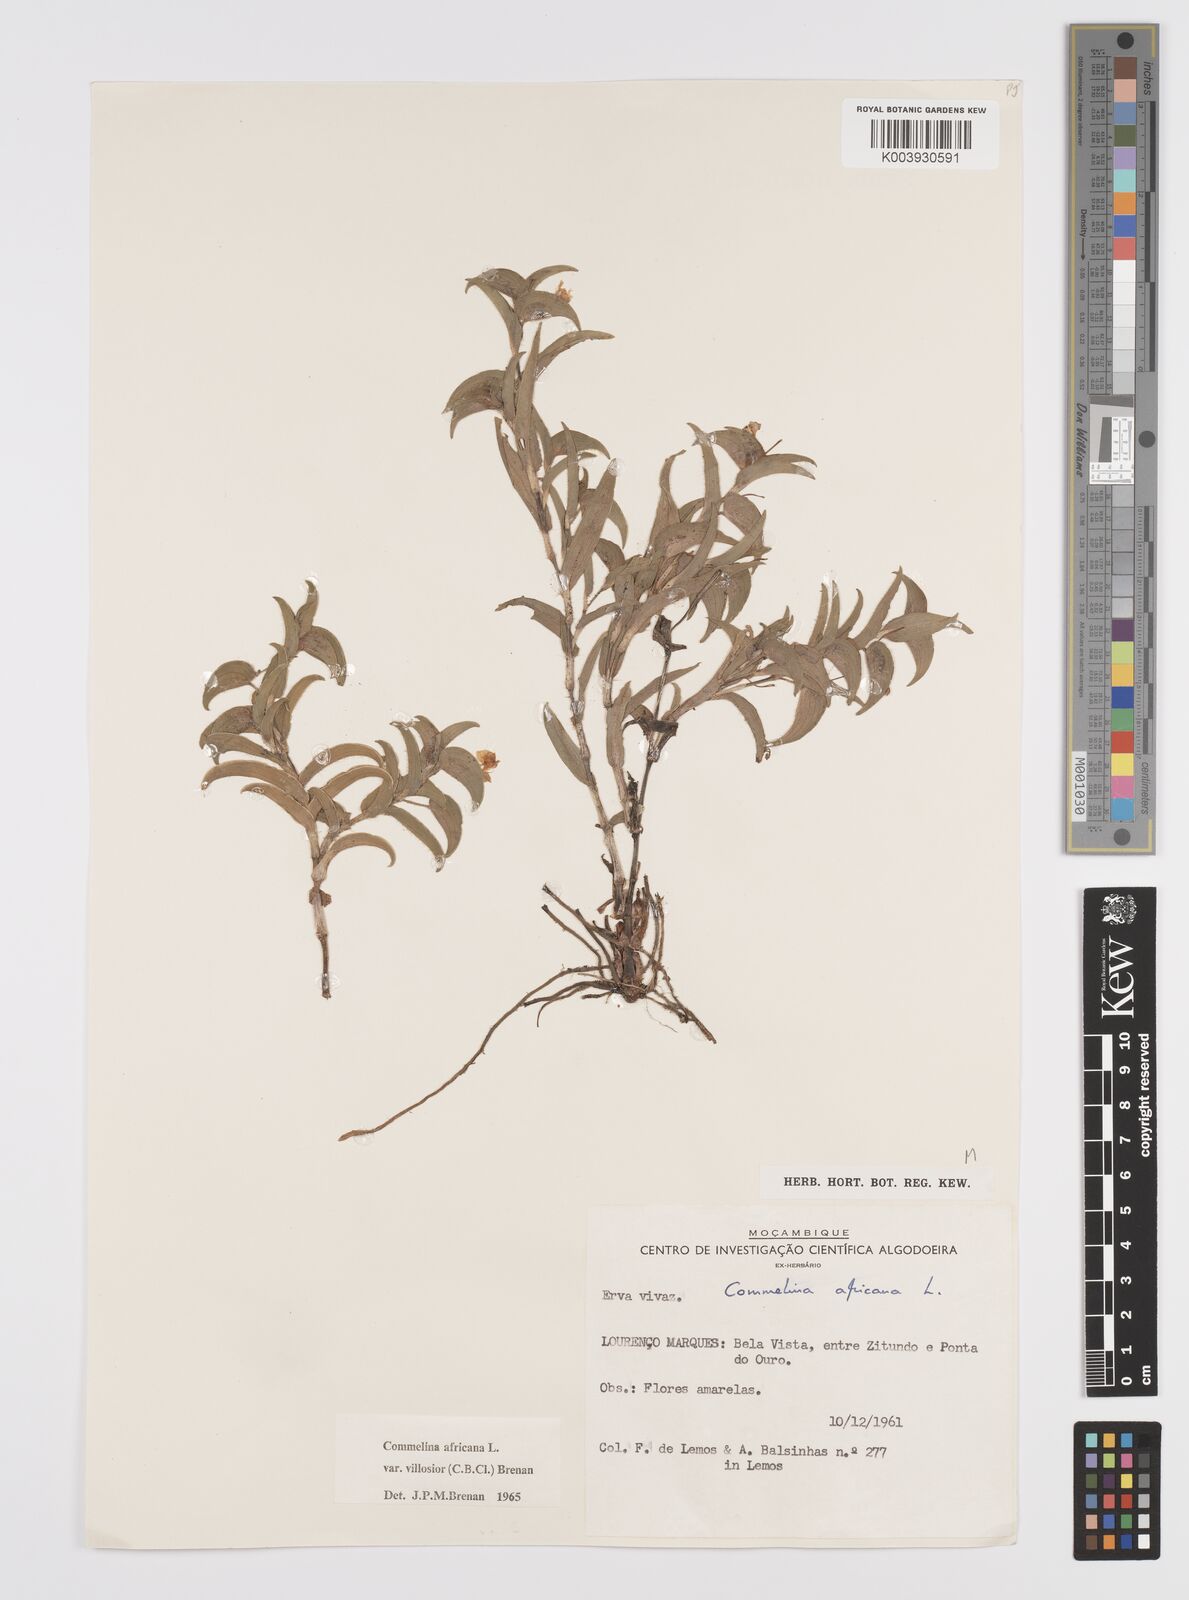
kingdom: Plantae
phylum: Tracheophyta
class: Liliopsida
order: Commelinales
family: Commelinaceae
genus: Commelina
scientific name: Commelina africana
